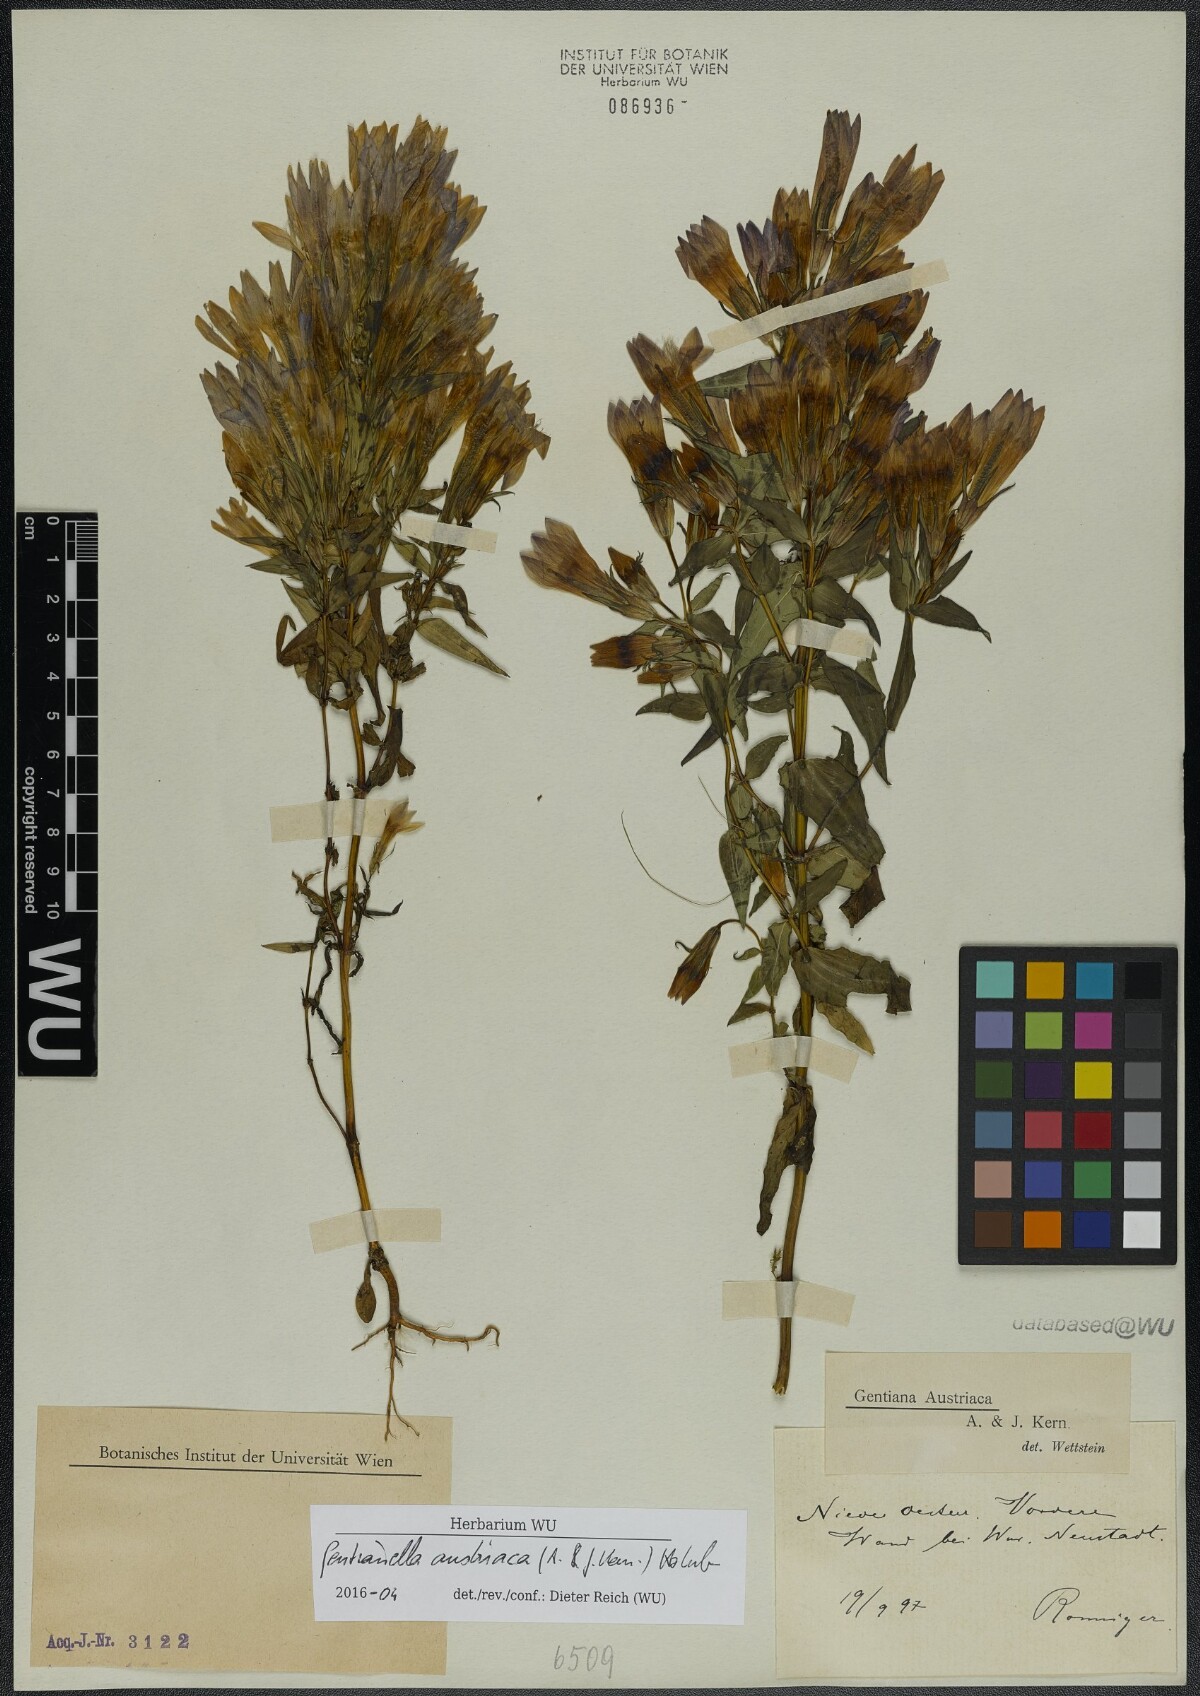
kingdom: Plantae
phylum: Tracheophyta
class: Magnoliopsida
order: Gentianales
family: Gentianaceae
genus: Gentianella
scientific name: Gentianella austriaca
